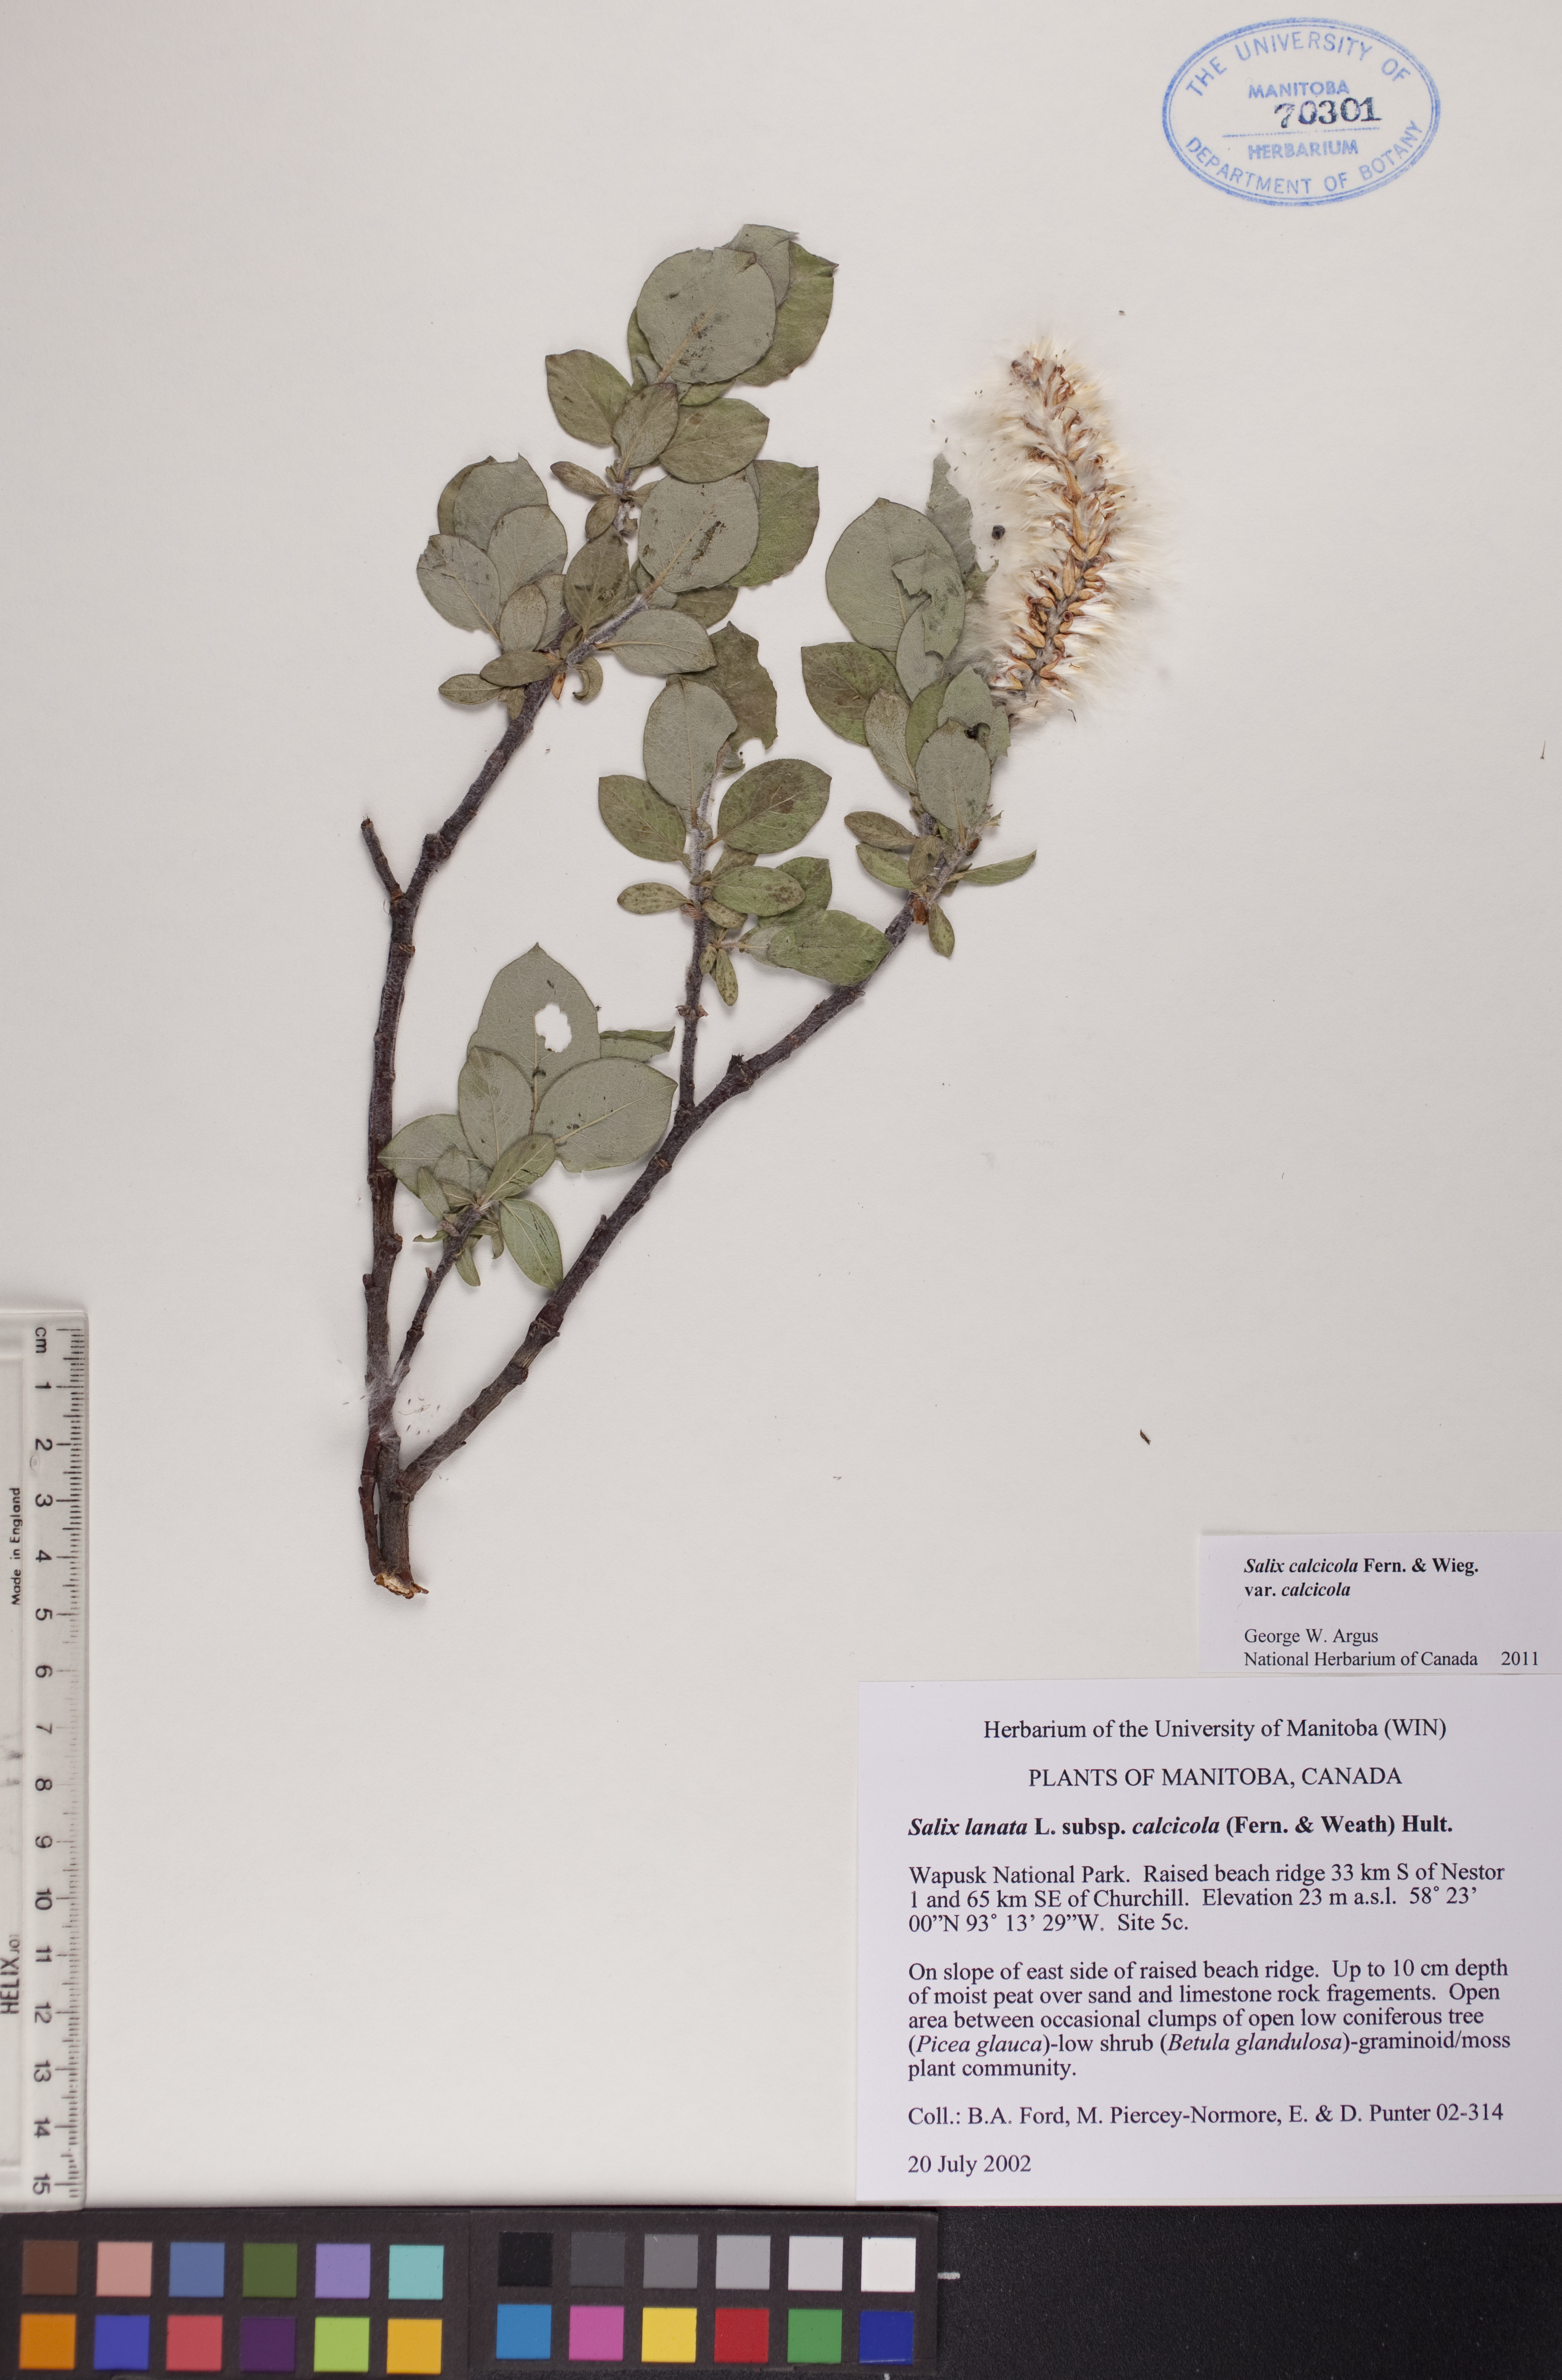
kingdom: Plantae
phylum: Tracheophyta
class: Magnoliopsida
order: Malpighiales
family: Salicaceae
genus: Salix
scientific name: Salix calcicola
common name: Calcareous willow
